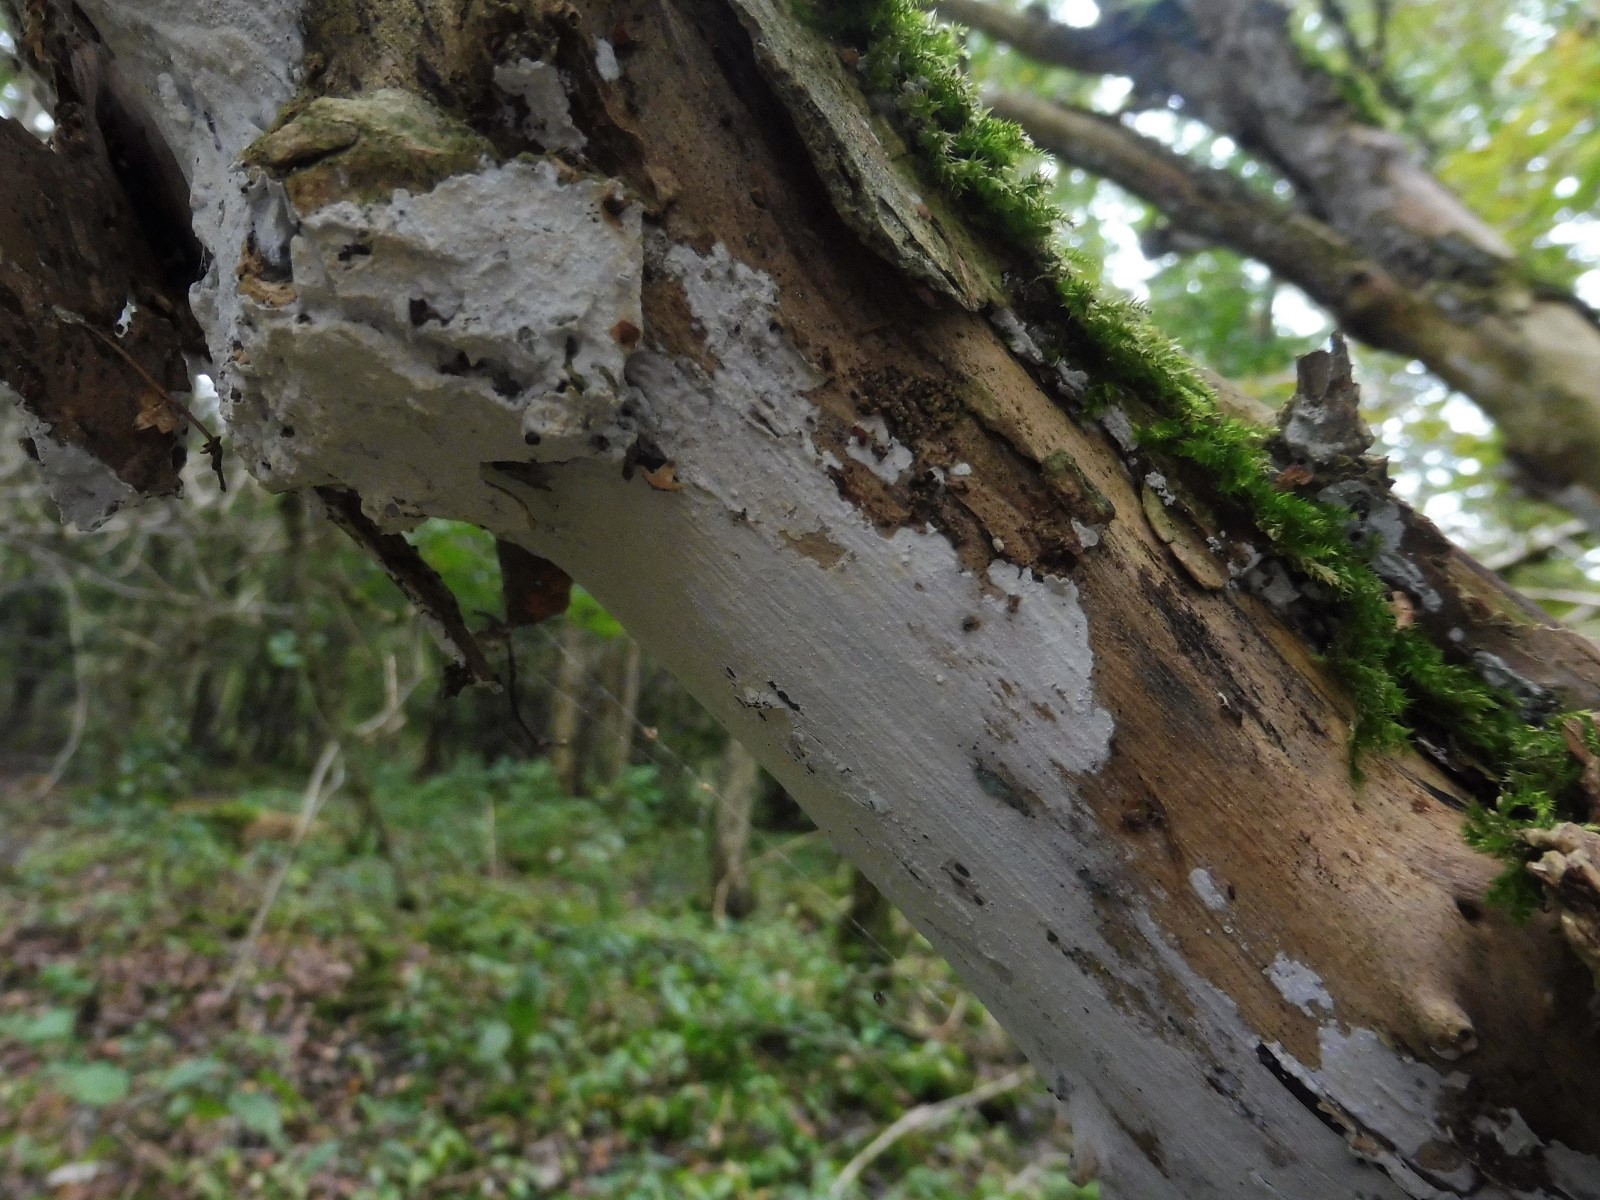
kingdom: Fungi
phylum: Basidiomycota
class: Agaricomycetes
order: Corticiales
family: Corticiaceae
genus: Lyomyces
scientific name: Lyomyces sambuci
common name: almindelig hyldehinde
